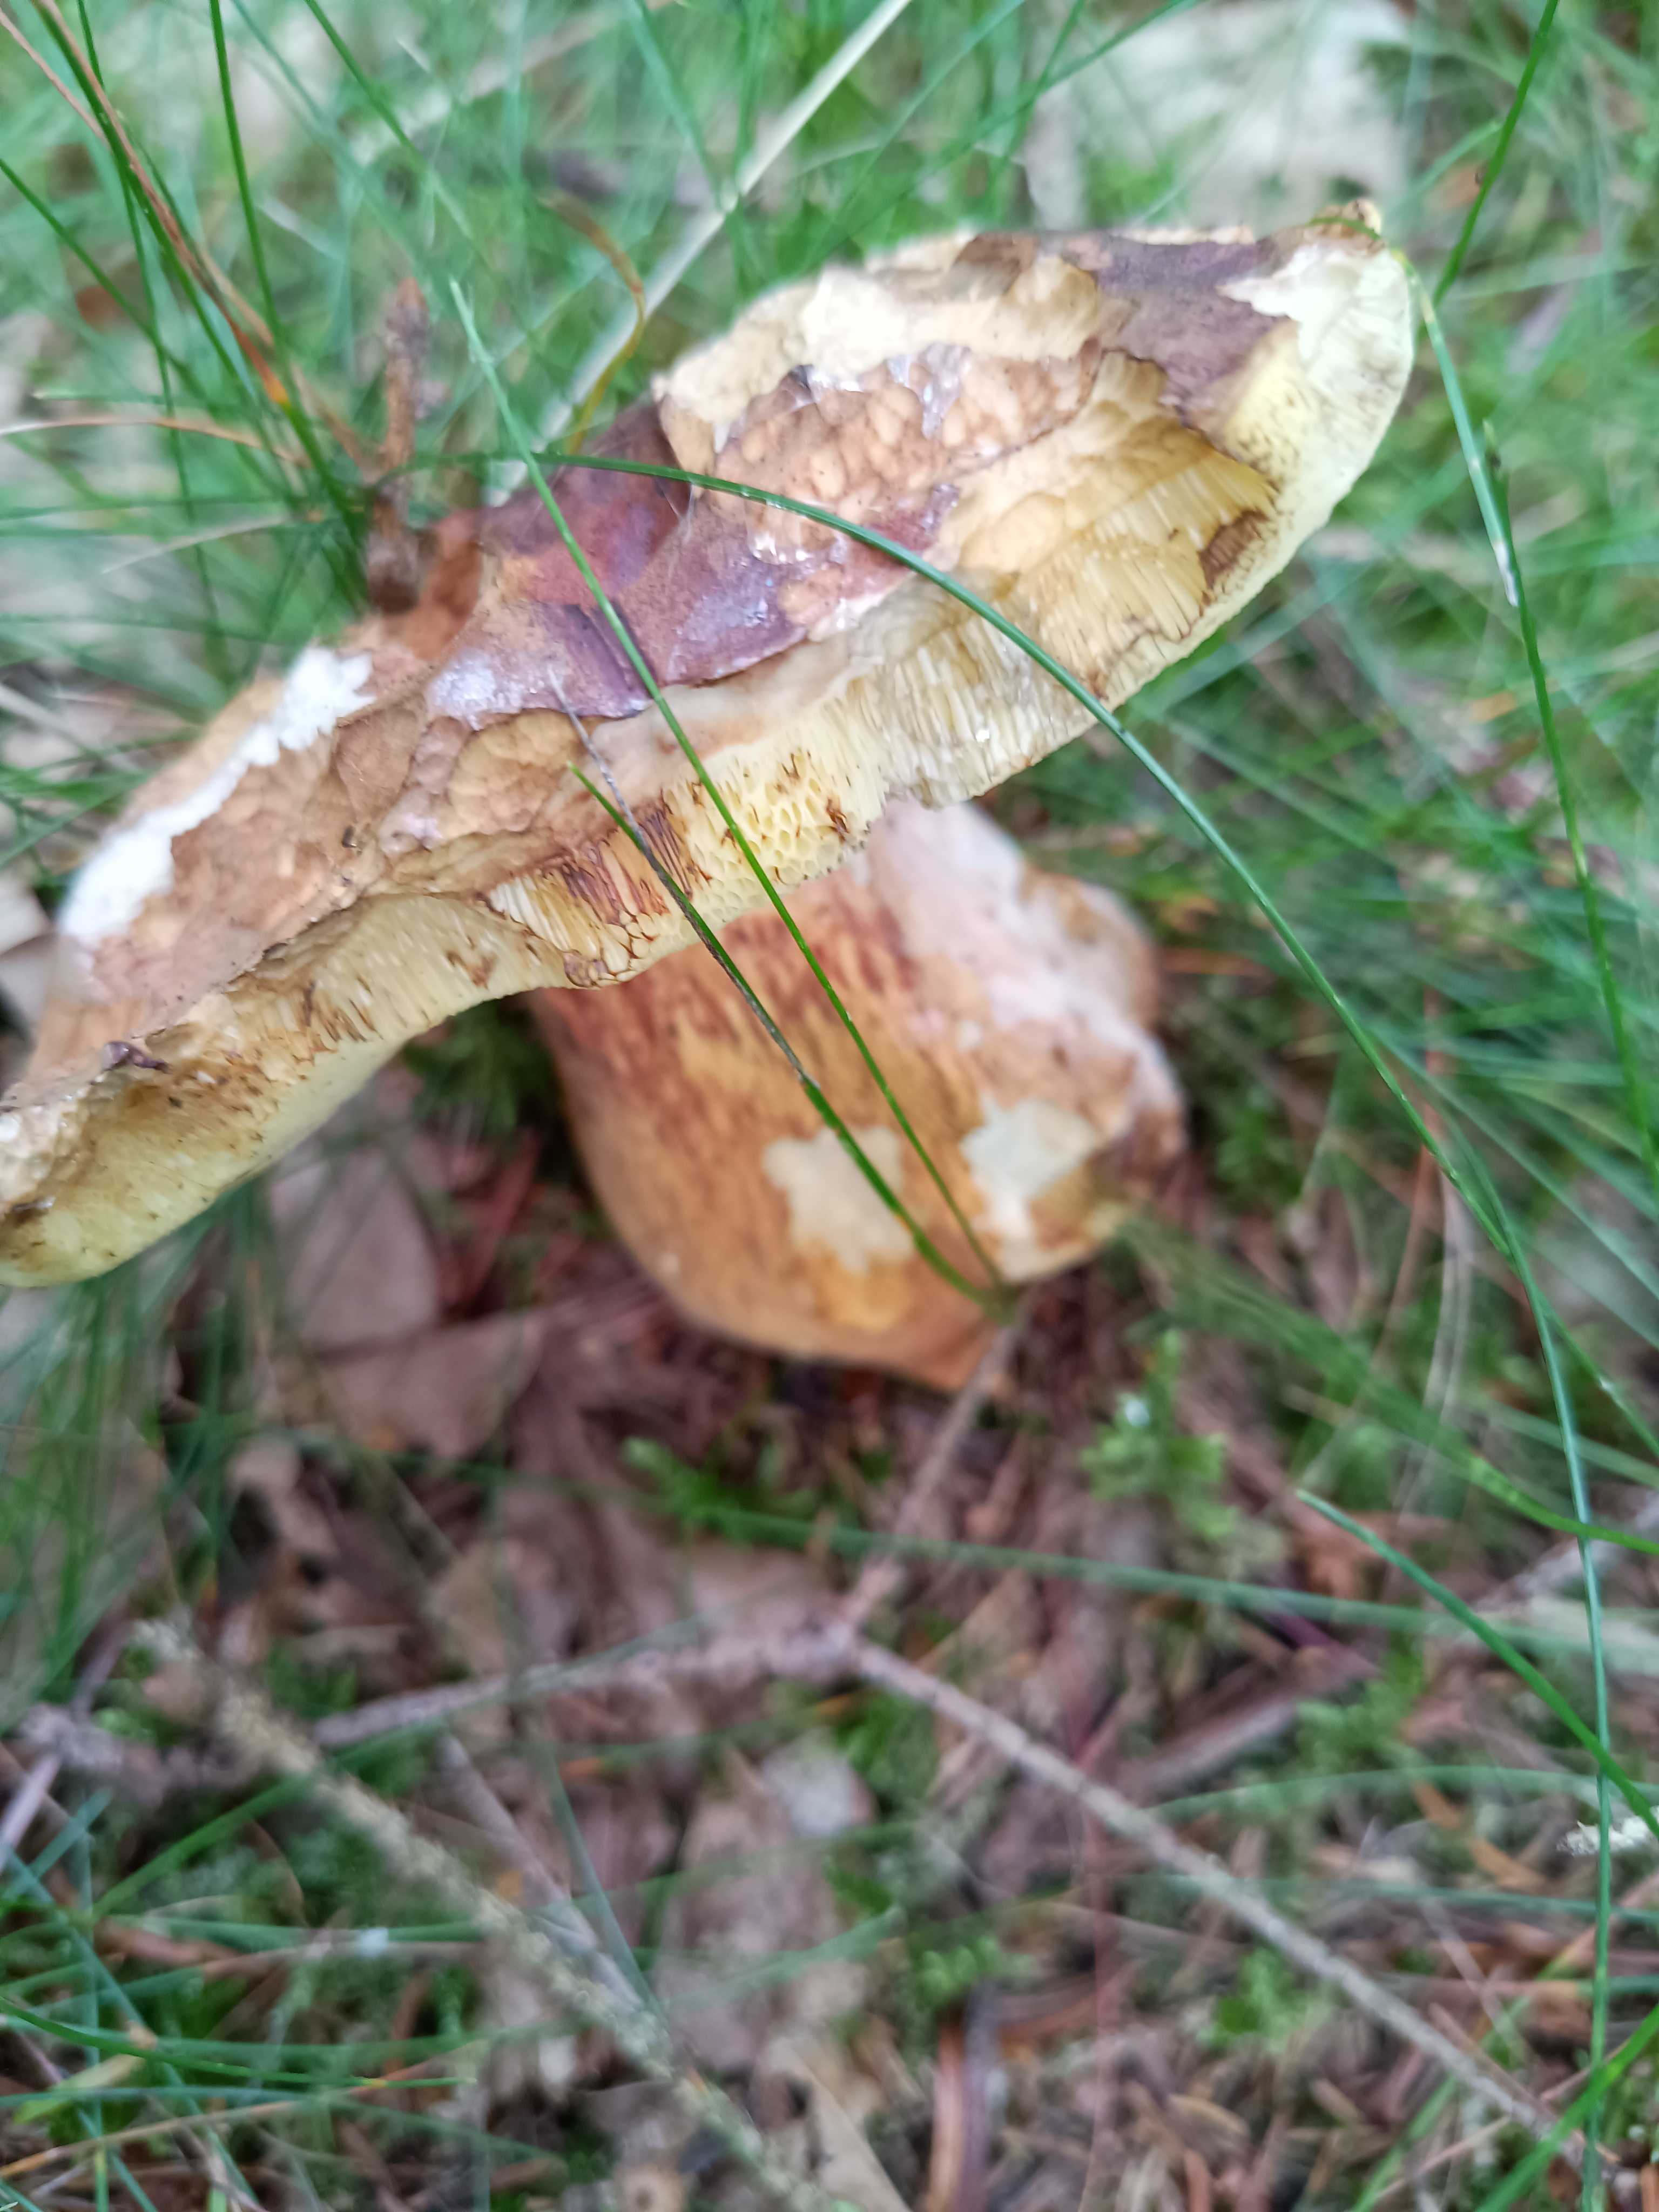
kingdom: Fungi
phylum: Basidiomycota
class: Agaricomycetes
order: Boletales
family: Boletaceae
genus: Imleria
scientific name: Imleria badia
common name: brunstokket rørhat
